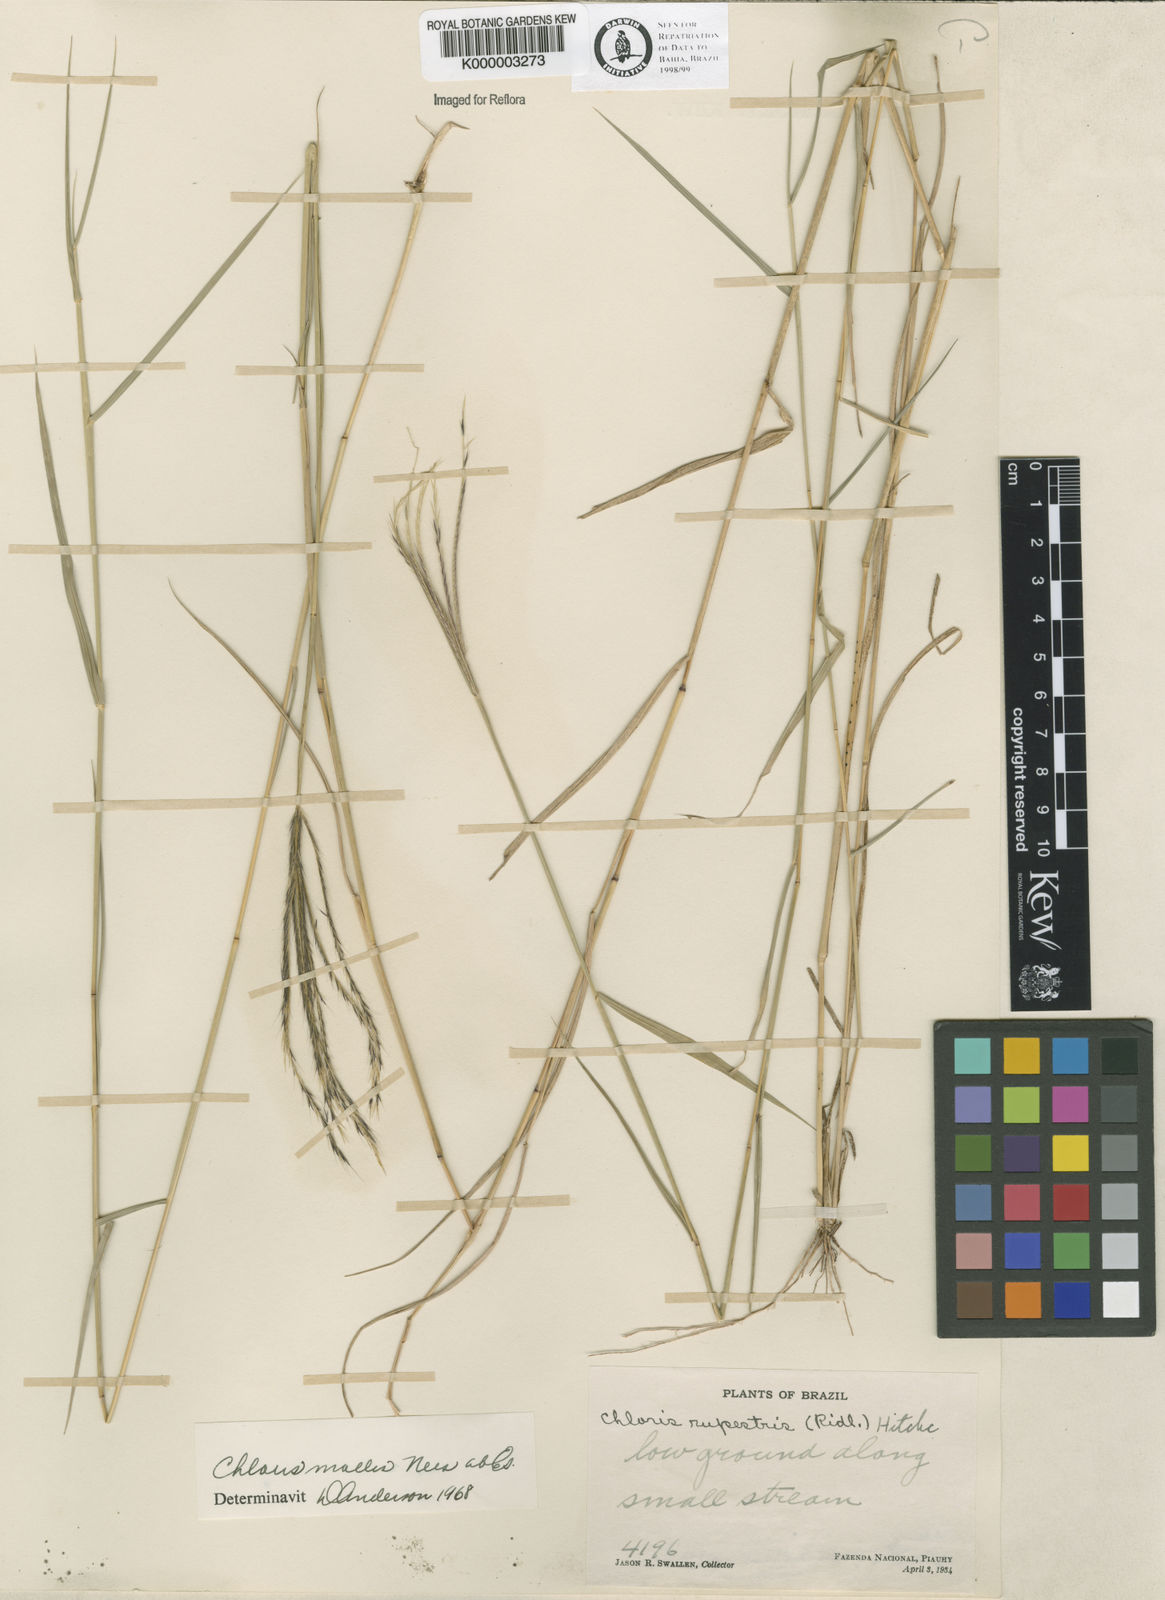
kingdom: Plantae
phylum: Tracheophyta
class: Liliopsida
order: Poales
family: Poaceae
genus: Leptochloa
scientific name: Leptochloa anisopoda
